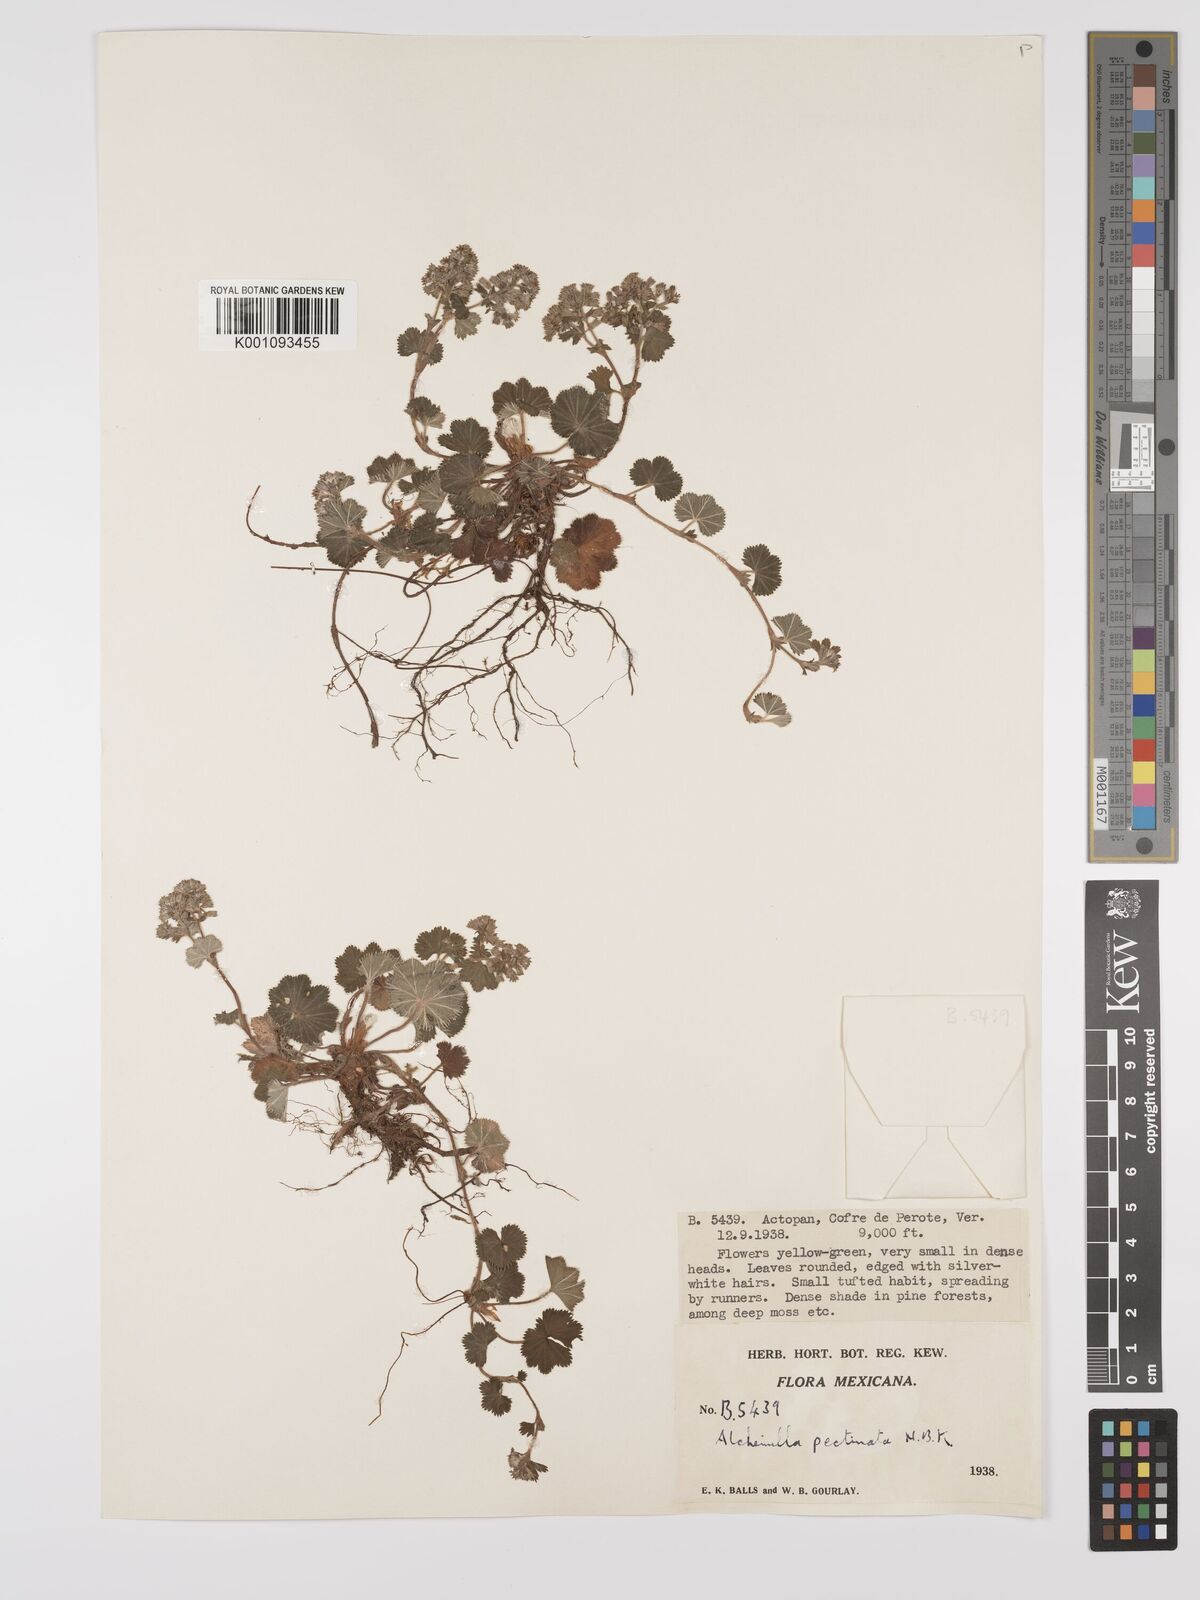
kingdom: Plantae
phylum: Tracheophyta
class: Magnoliopsida
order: Rosales
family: Rosaceae
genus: Lachemilla
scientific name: Lachemilla pectinata
